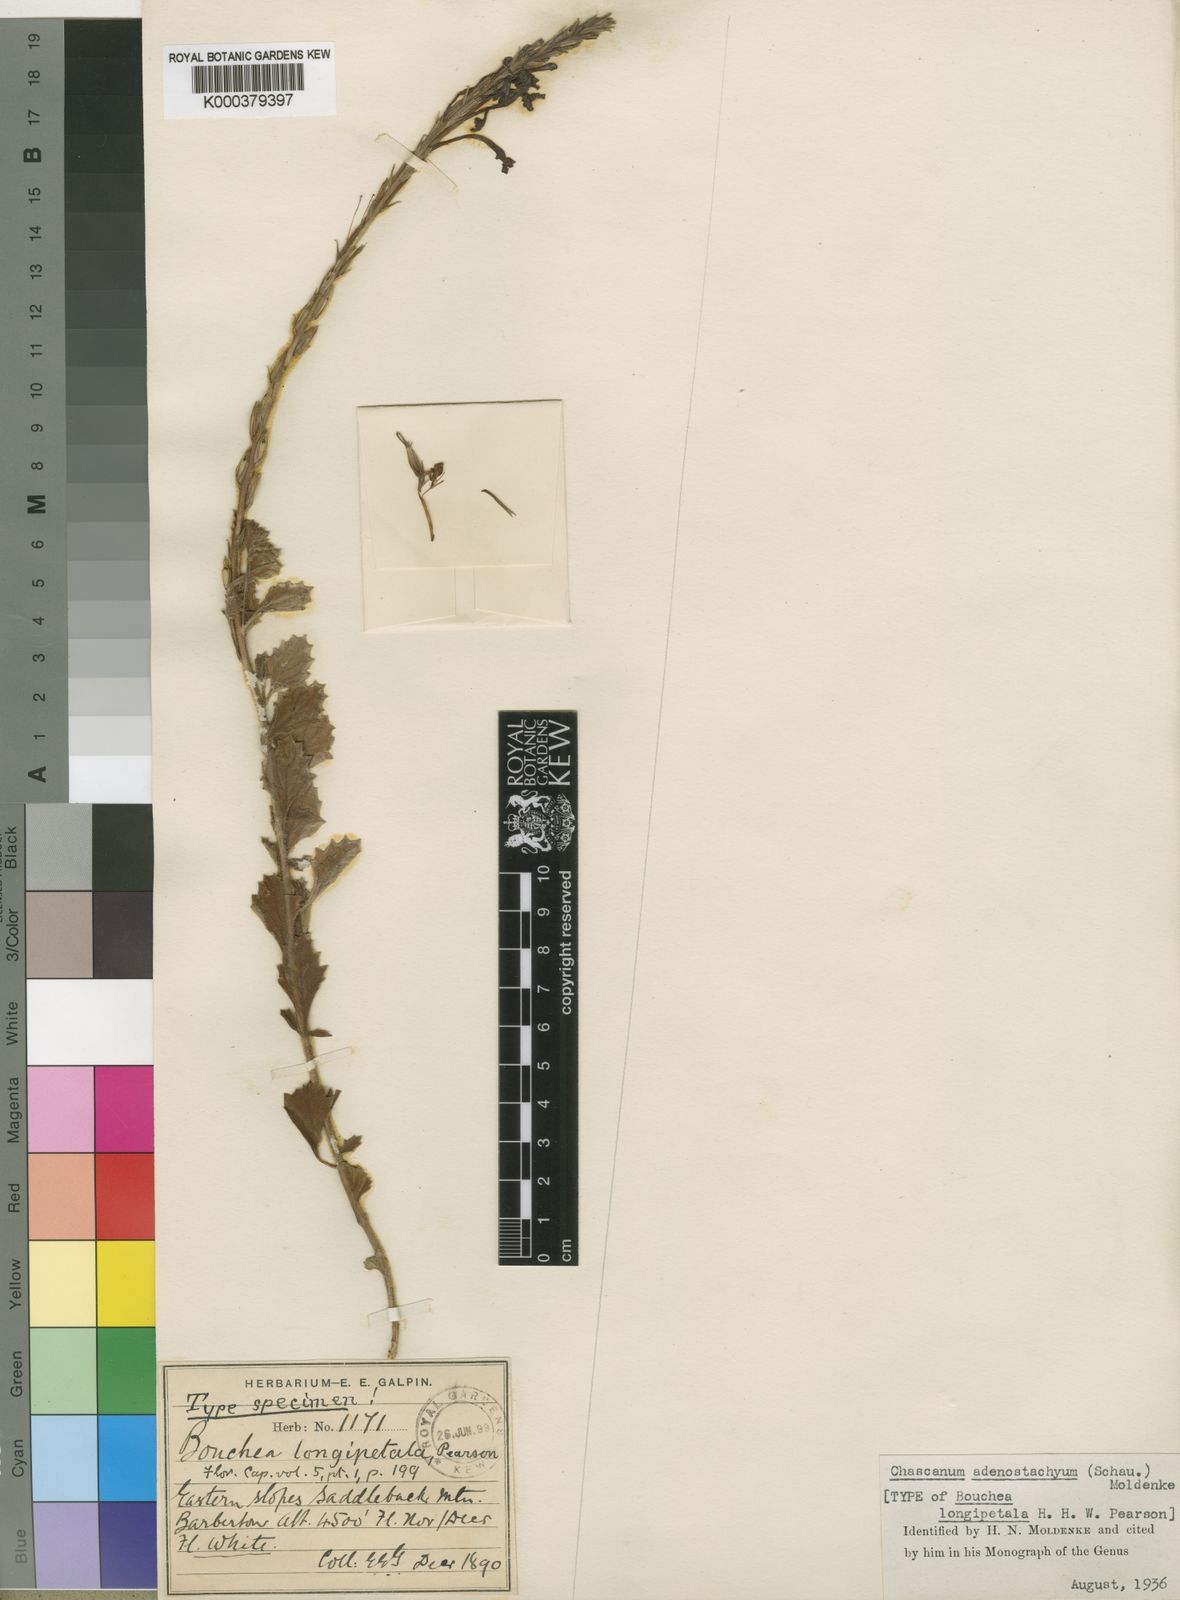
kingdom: Plantae
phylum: Tracheophyta
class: Magnoliopsida
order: Lamiales
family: Verbenaceae
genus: Chascanum
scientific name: Chascanum adenostachyum
